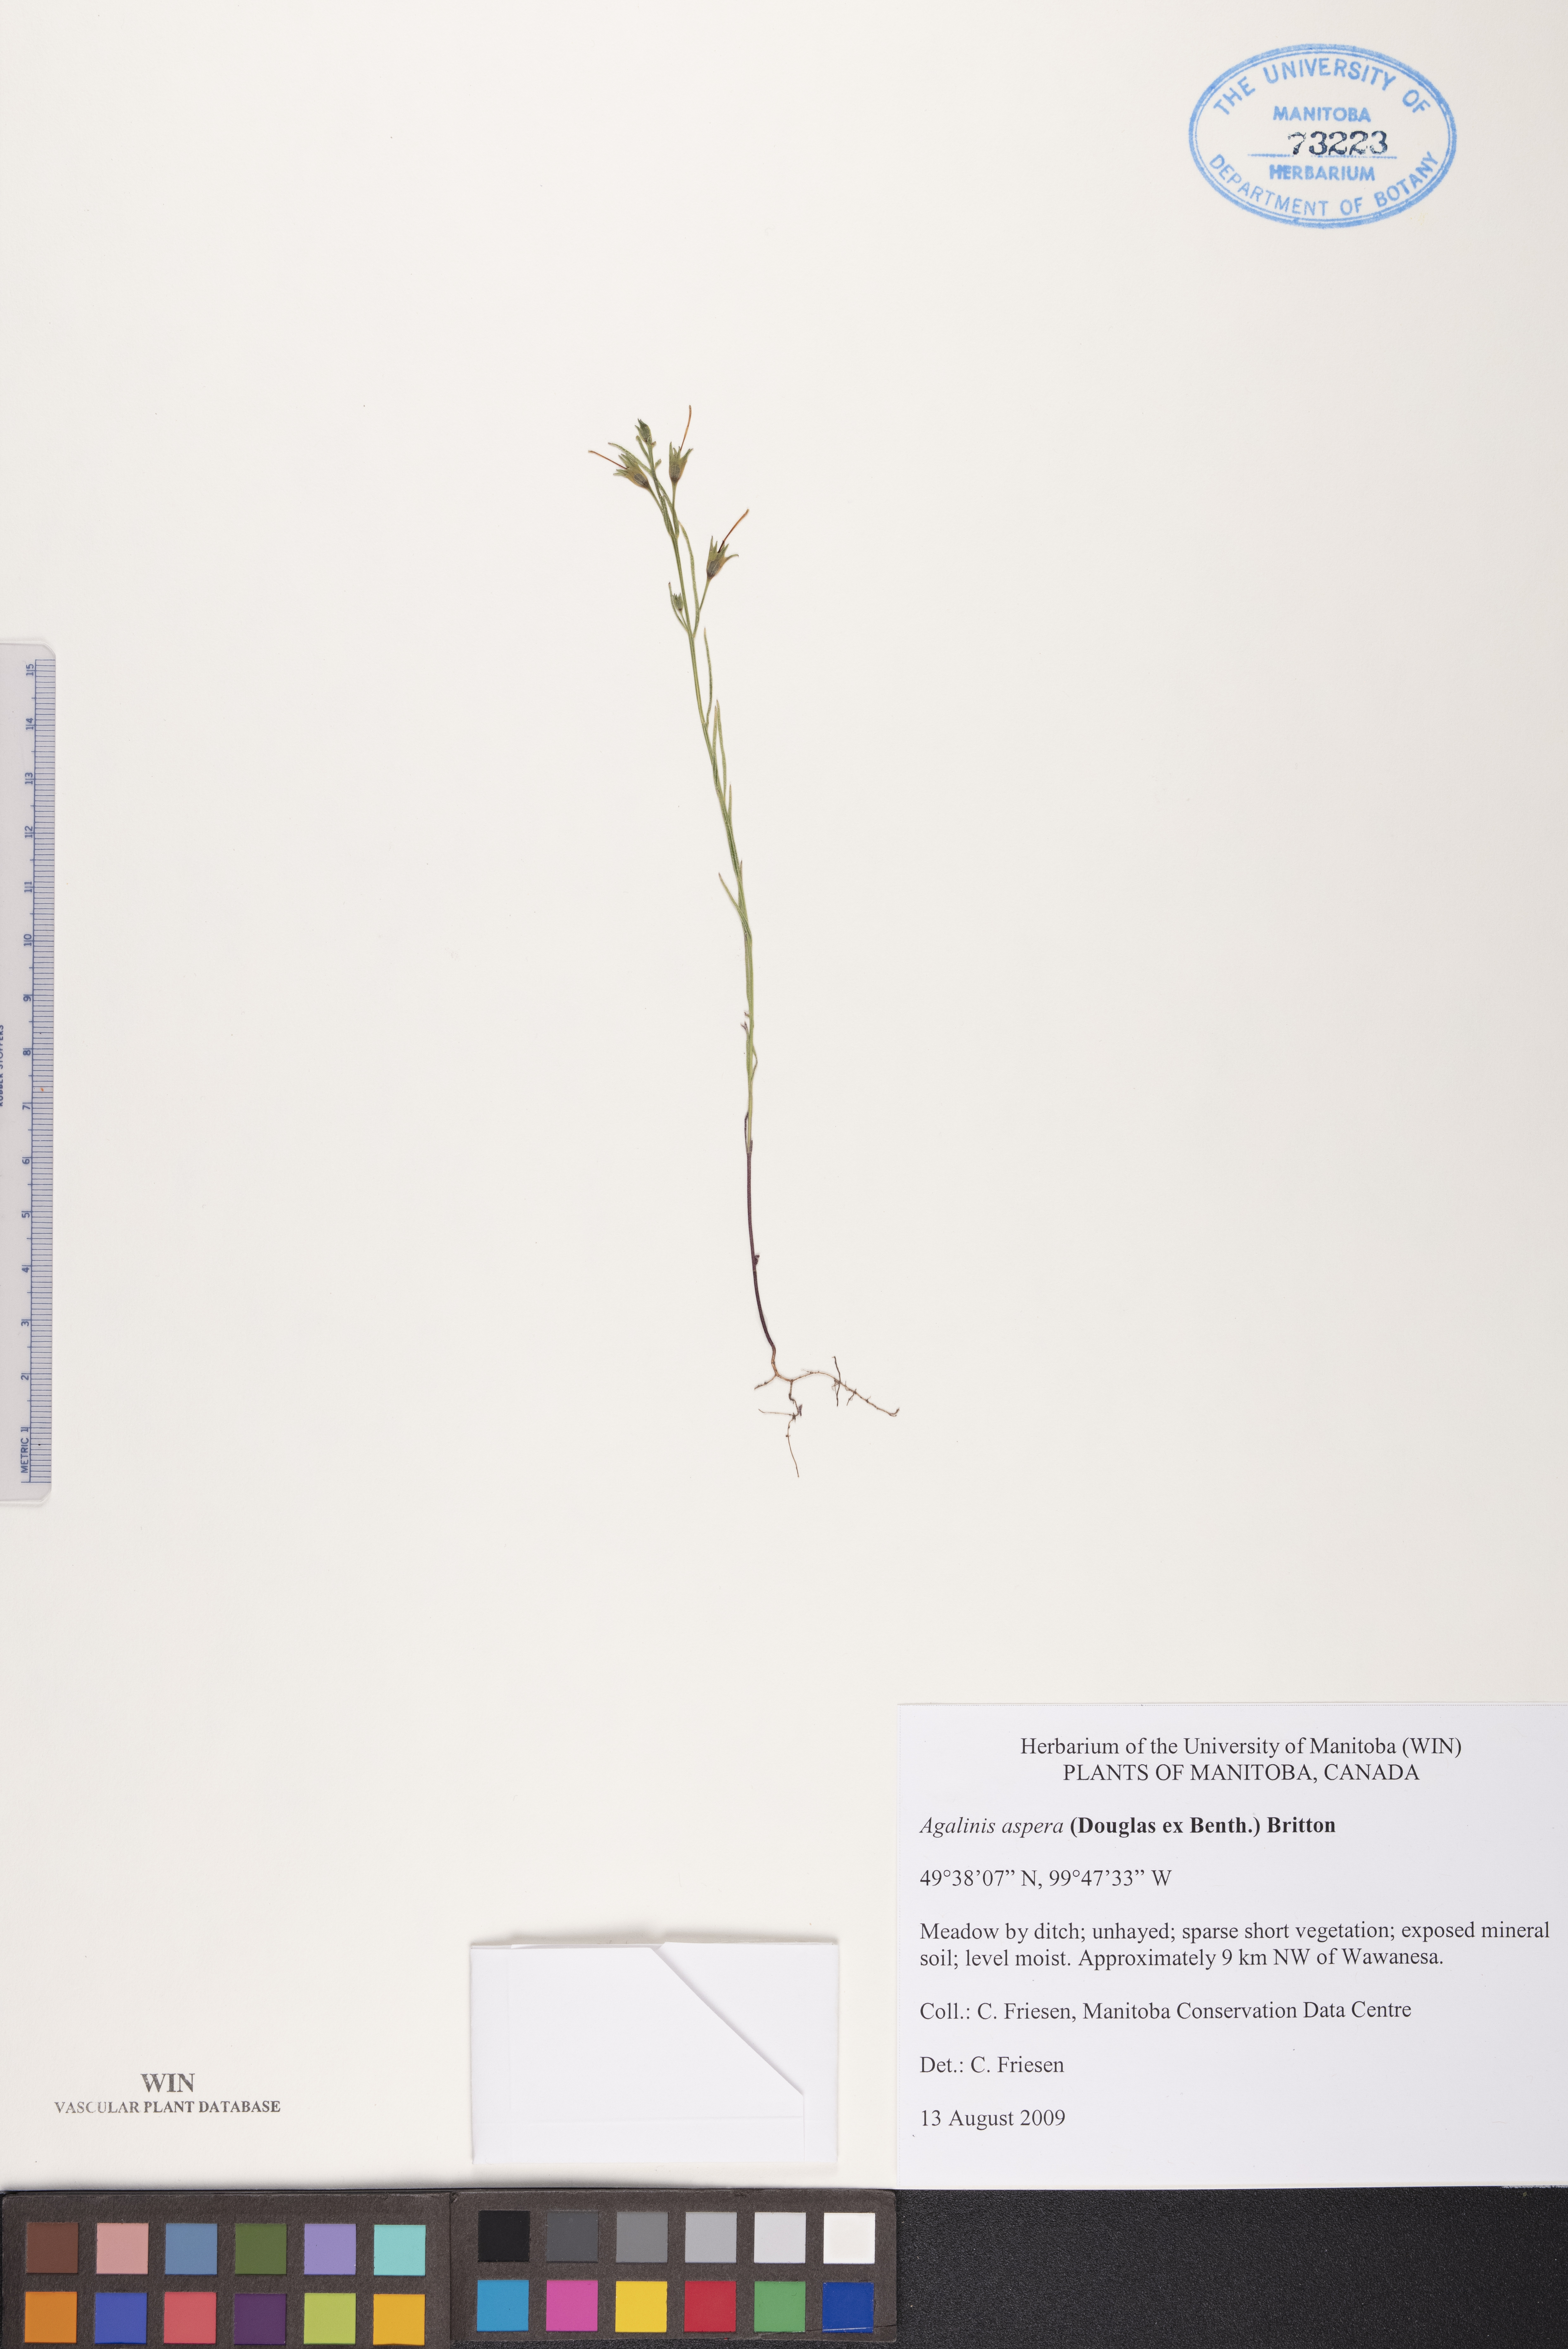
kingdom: Plantae
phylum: Tracheophyta
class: Magnoliopsida
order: Lamiales
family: Orobanchaceae
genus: Agalinis
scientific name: Agalinis aspera
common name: Rough agalinis
